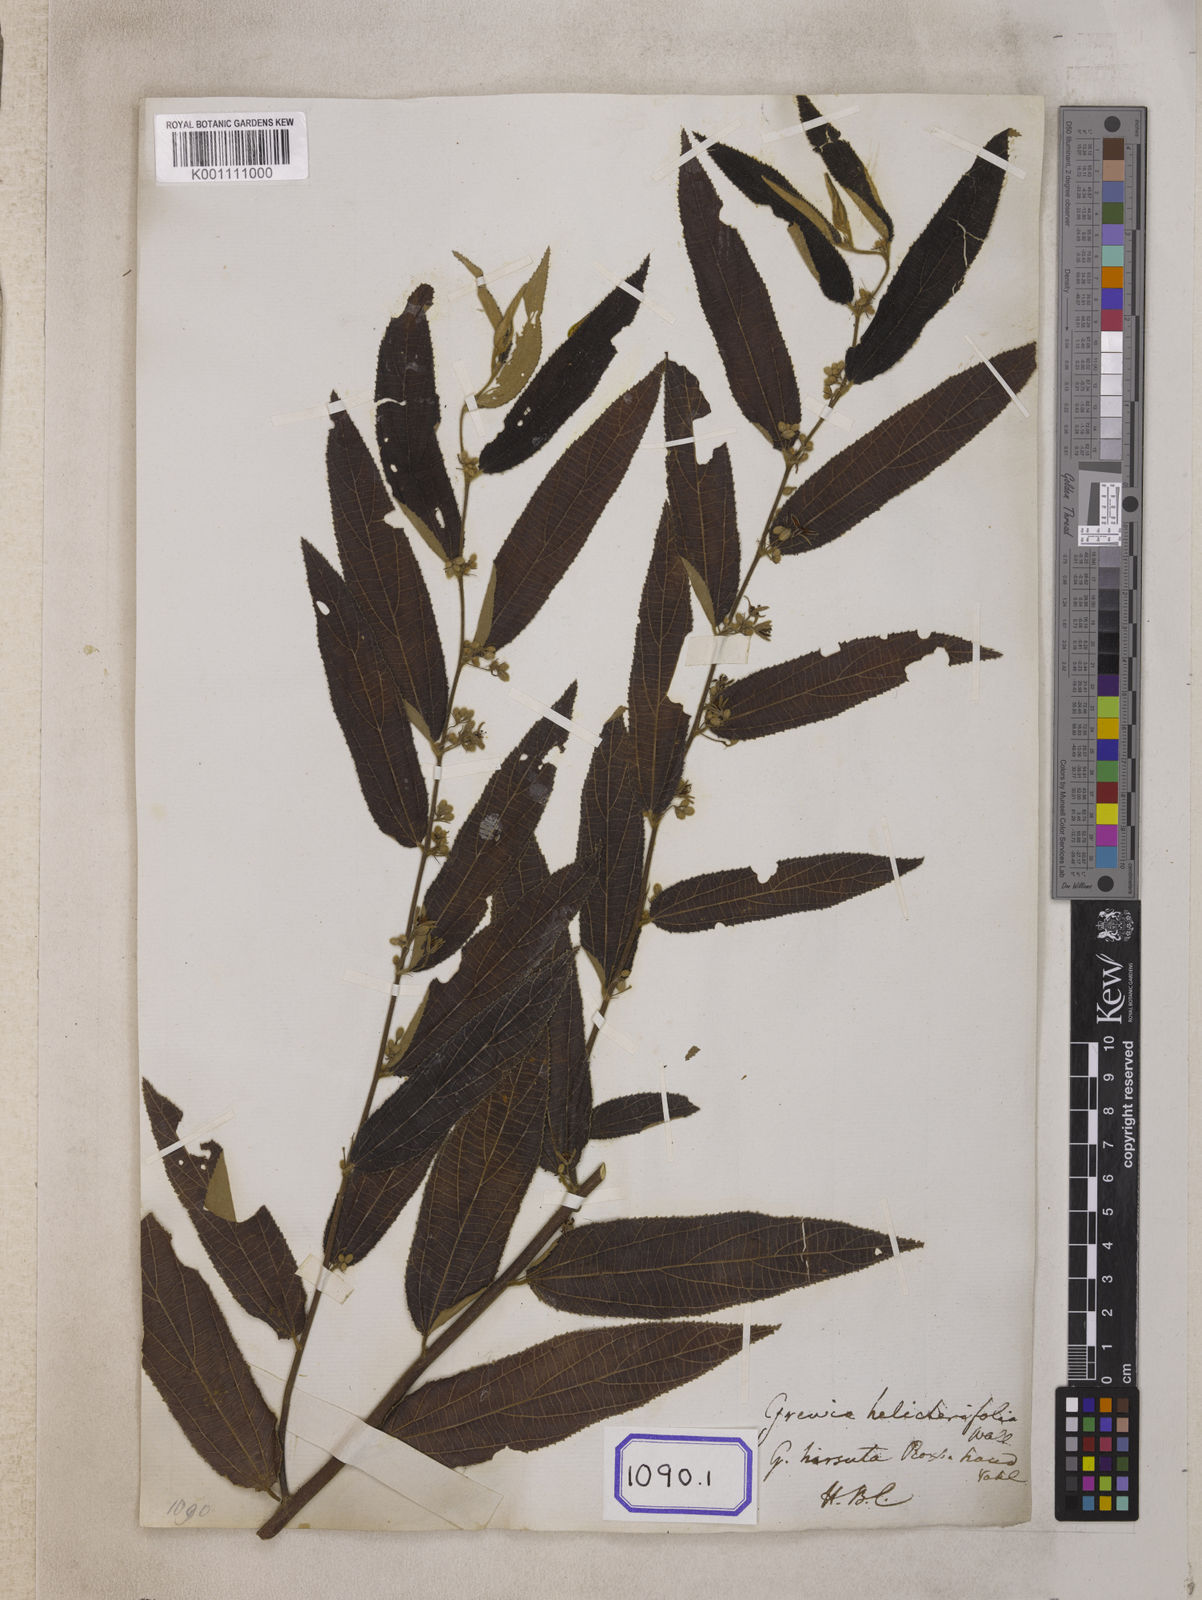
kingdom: Plantae
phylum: Tracheophyta
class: Magnoliopsida
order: Malvales
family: Malvaceae
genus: Grewia
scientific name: Grewia
